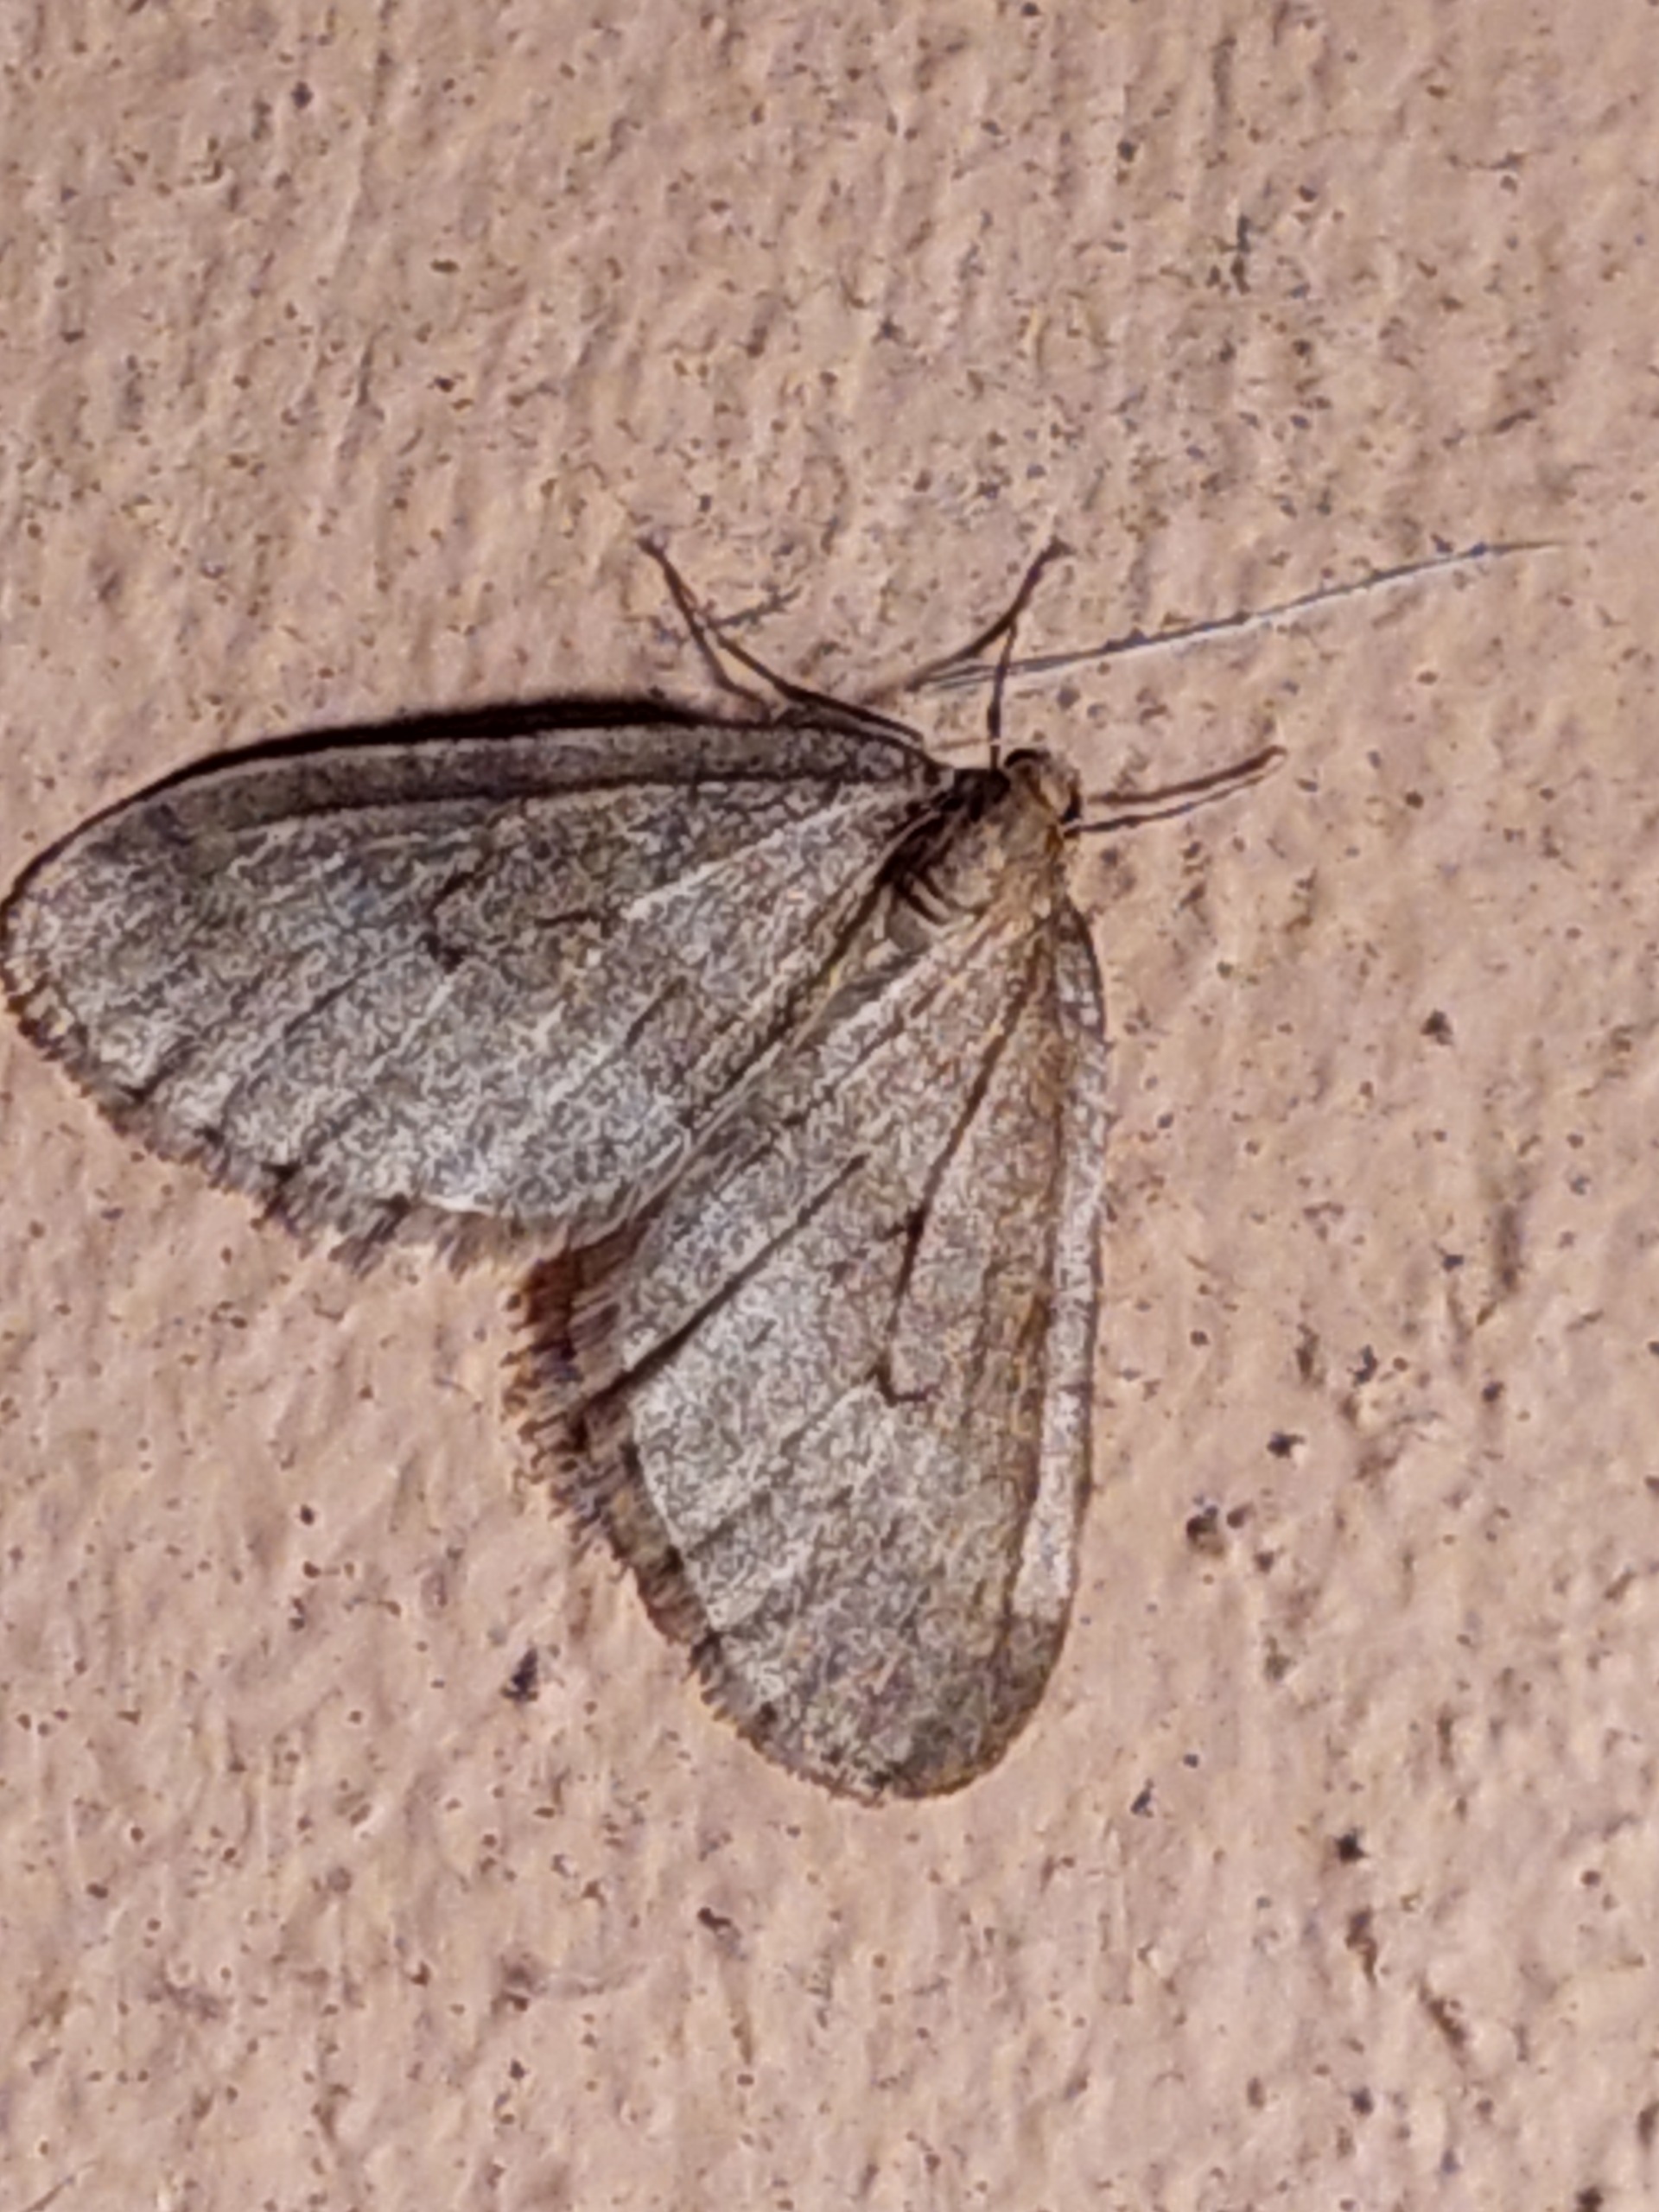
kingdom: Animalia
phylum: Arthropoda
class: Insecta
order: Lepidoptera
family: Geometridae
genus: Operophtera
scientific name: Operophtera brumata
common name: Lille frostmåler
